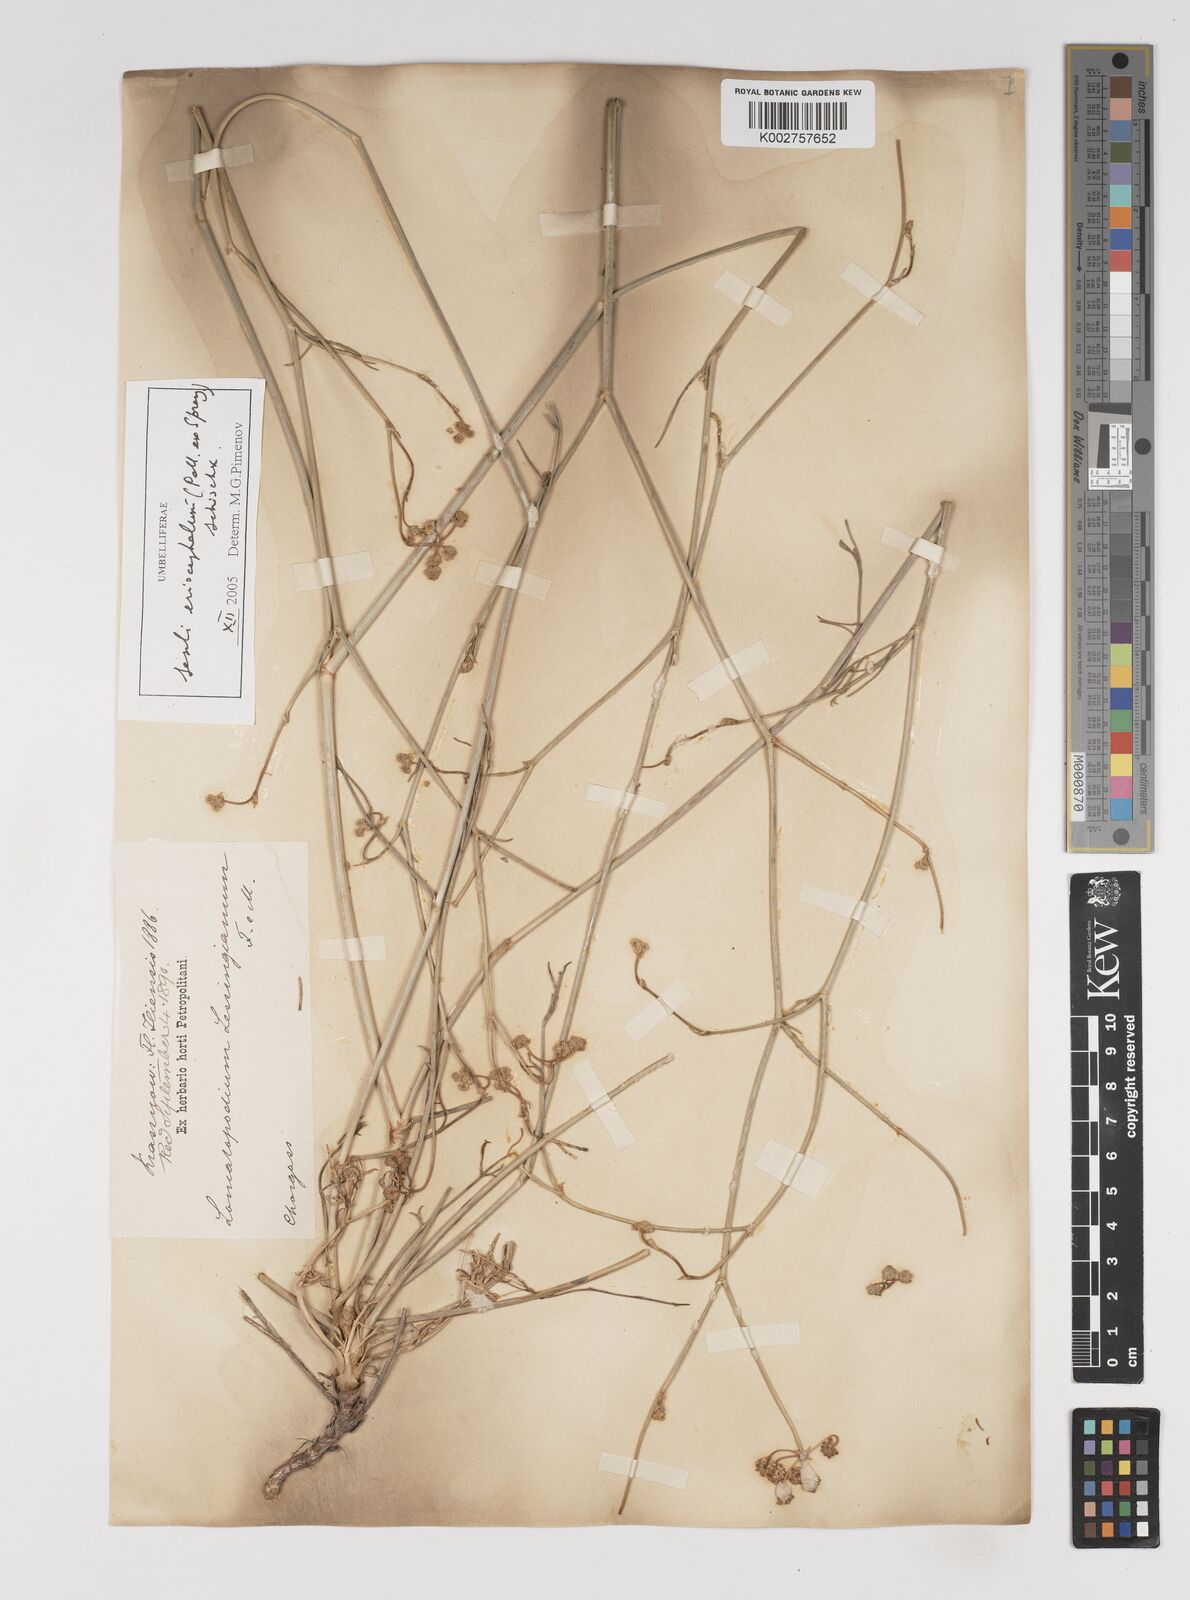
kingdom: Plantae
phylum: Tracheophyta
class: Magnoliopsida
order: Apiales
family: Apiaceae
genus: Seseli
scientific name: Seseli eriocephalum
